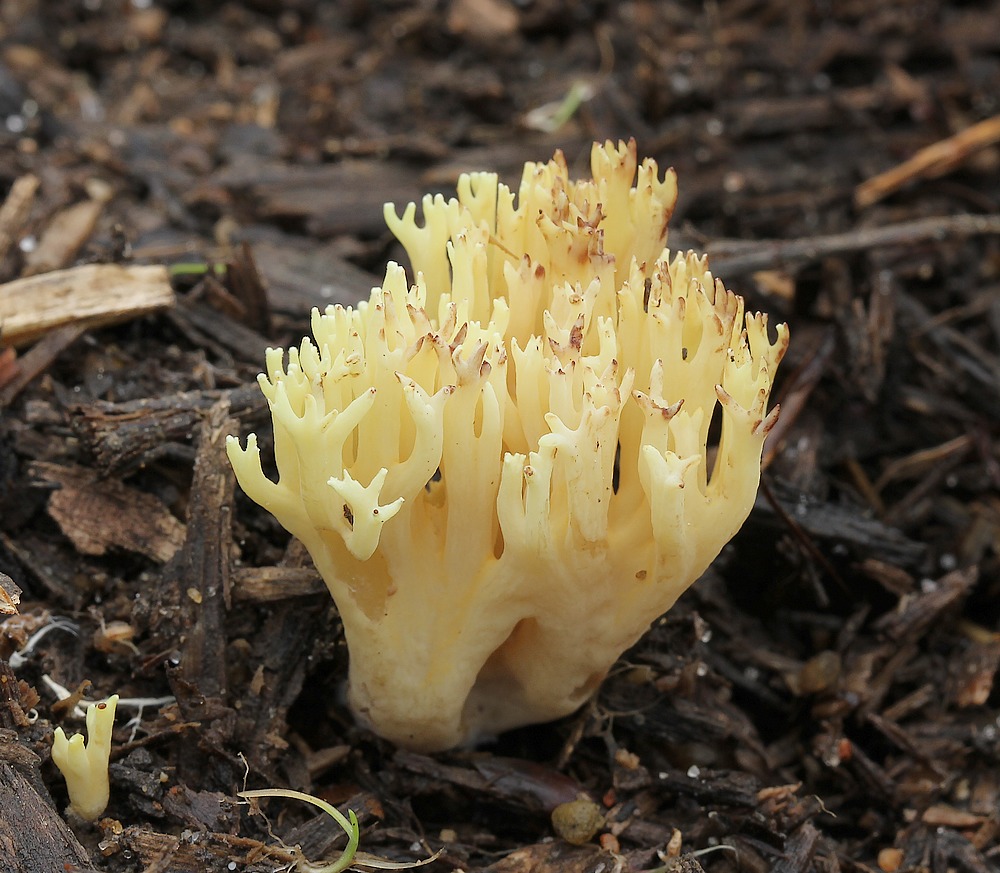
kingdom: Fungi
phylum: Basidiomycota
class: Agaricomycetes
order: Gomphales
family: Gomphaceae
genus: Ramaria
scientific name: Ramaria stricta
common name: rank koralsvamp
